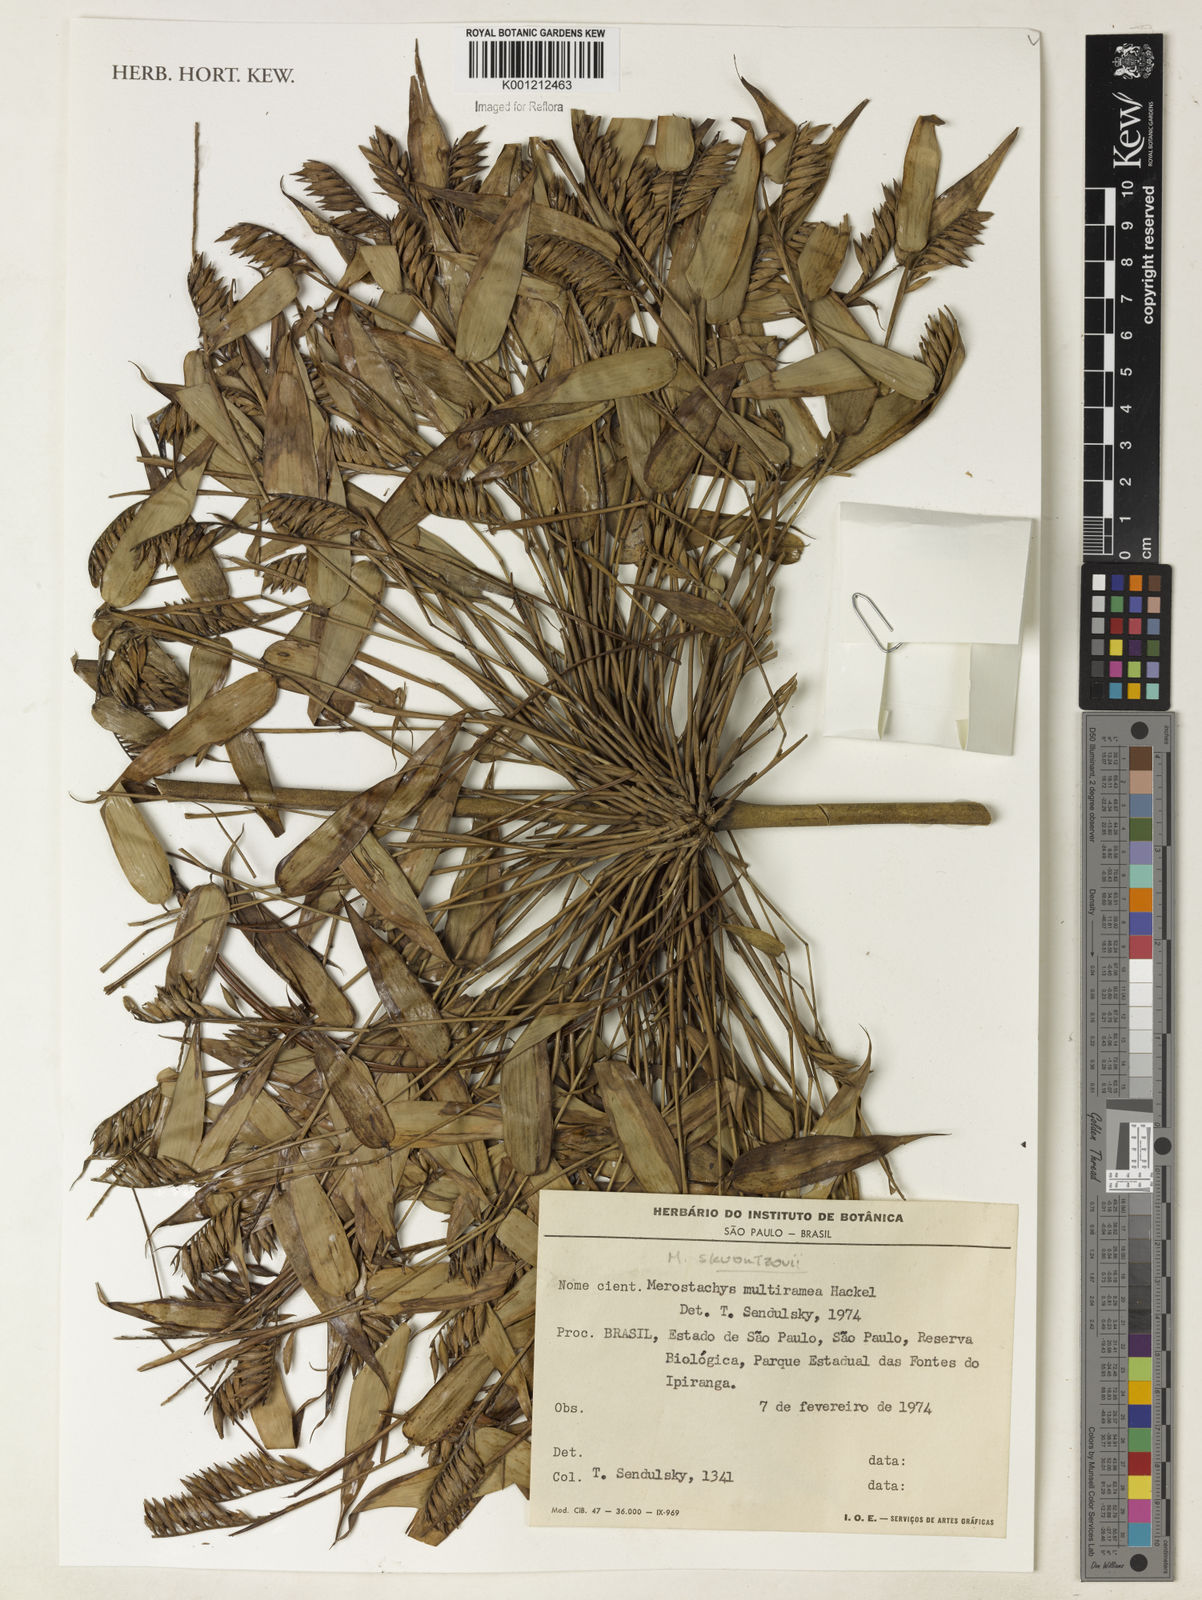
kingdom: Plantae
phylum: Tracheophyta
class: Liliopsida
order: Poales
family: Poaceae
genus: Merostachys
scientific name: Merostachys multiramea
